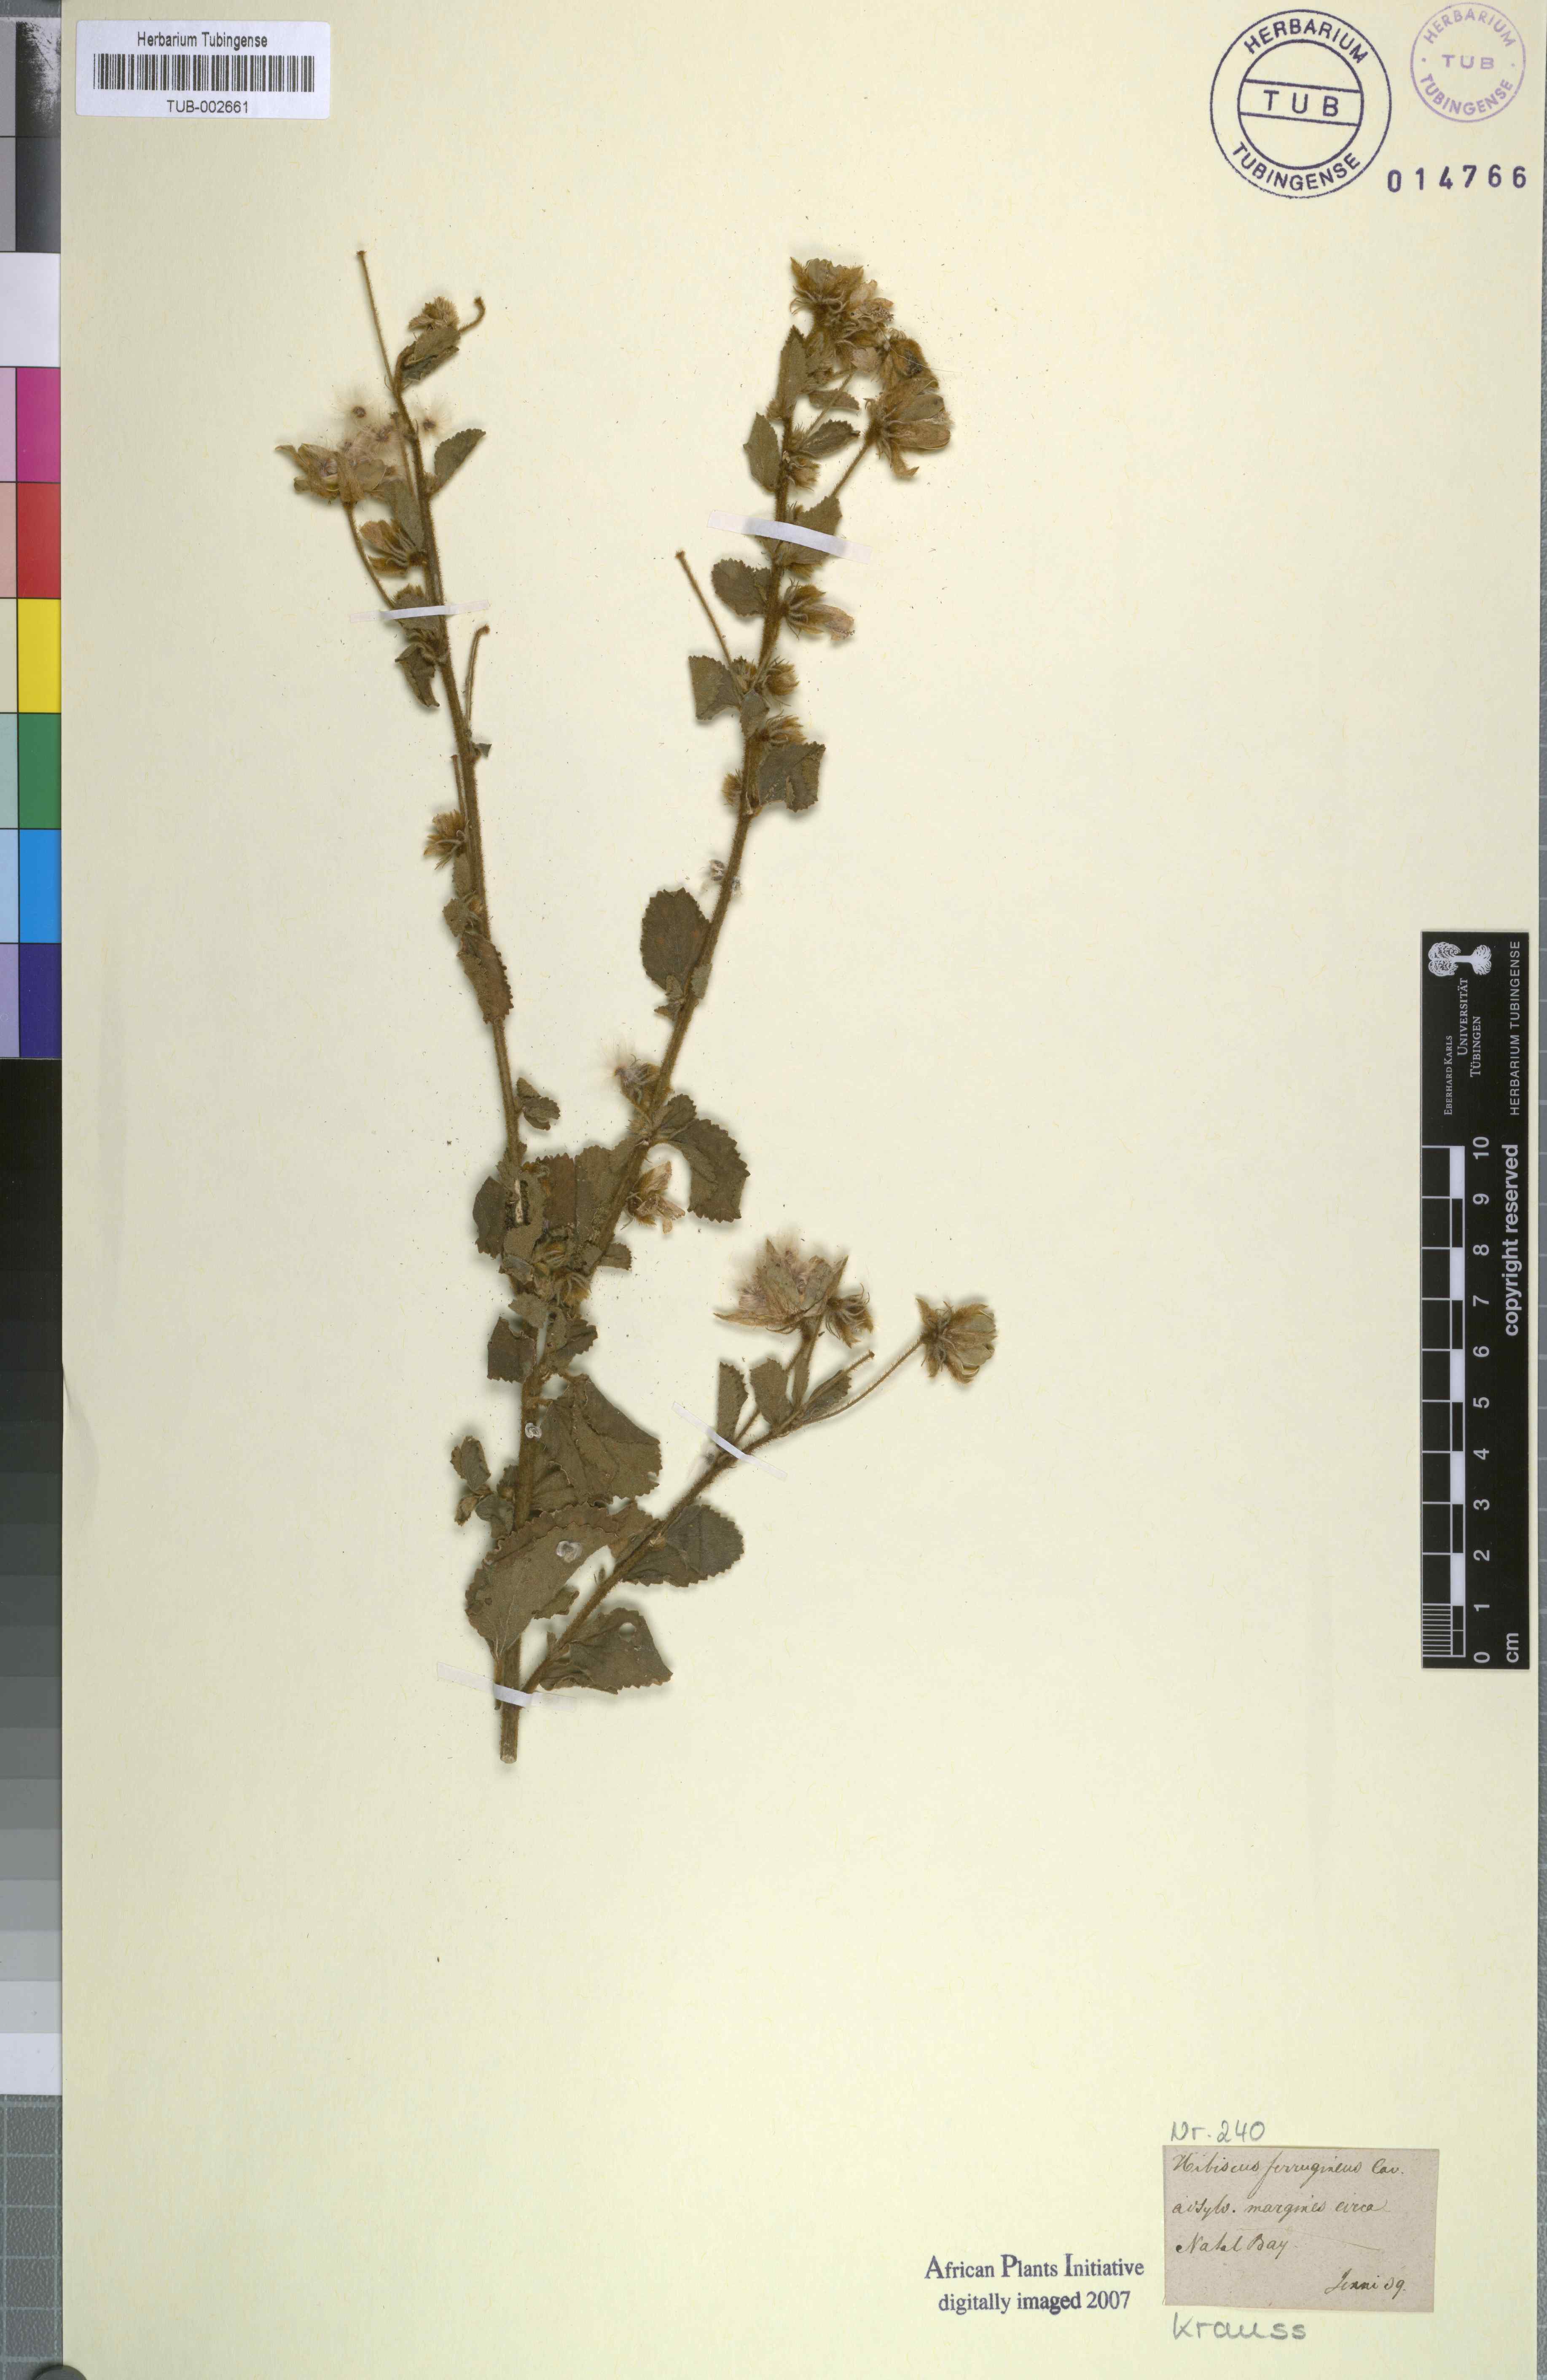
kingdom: Plantae
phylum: Tracheophyta
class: Magnoliopsida
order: Malvales
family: Malvaceae
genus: Hibiscus
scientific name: Hibiscus ferrugineus
